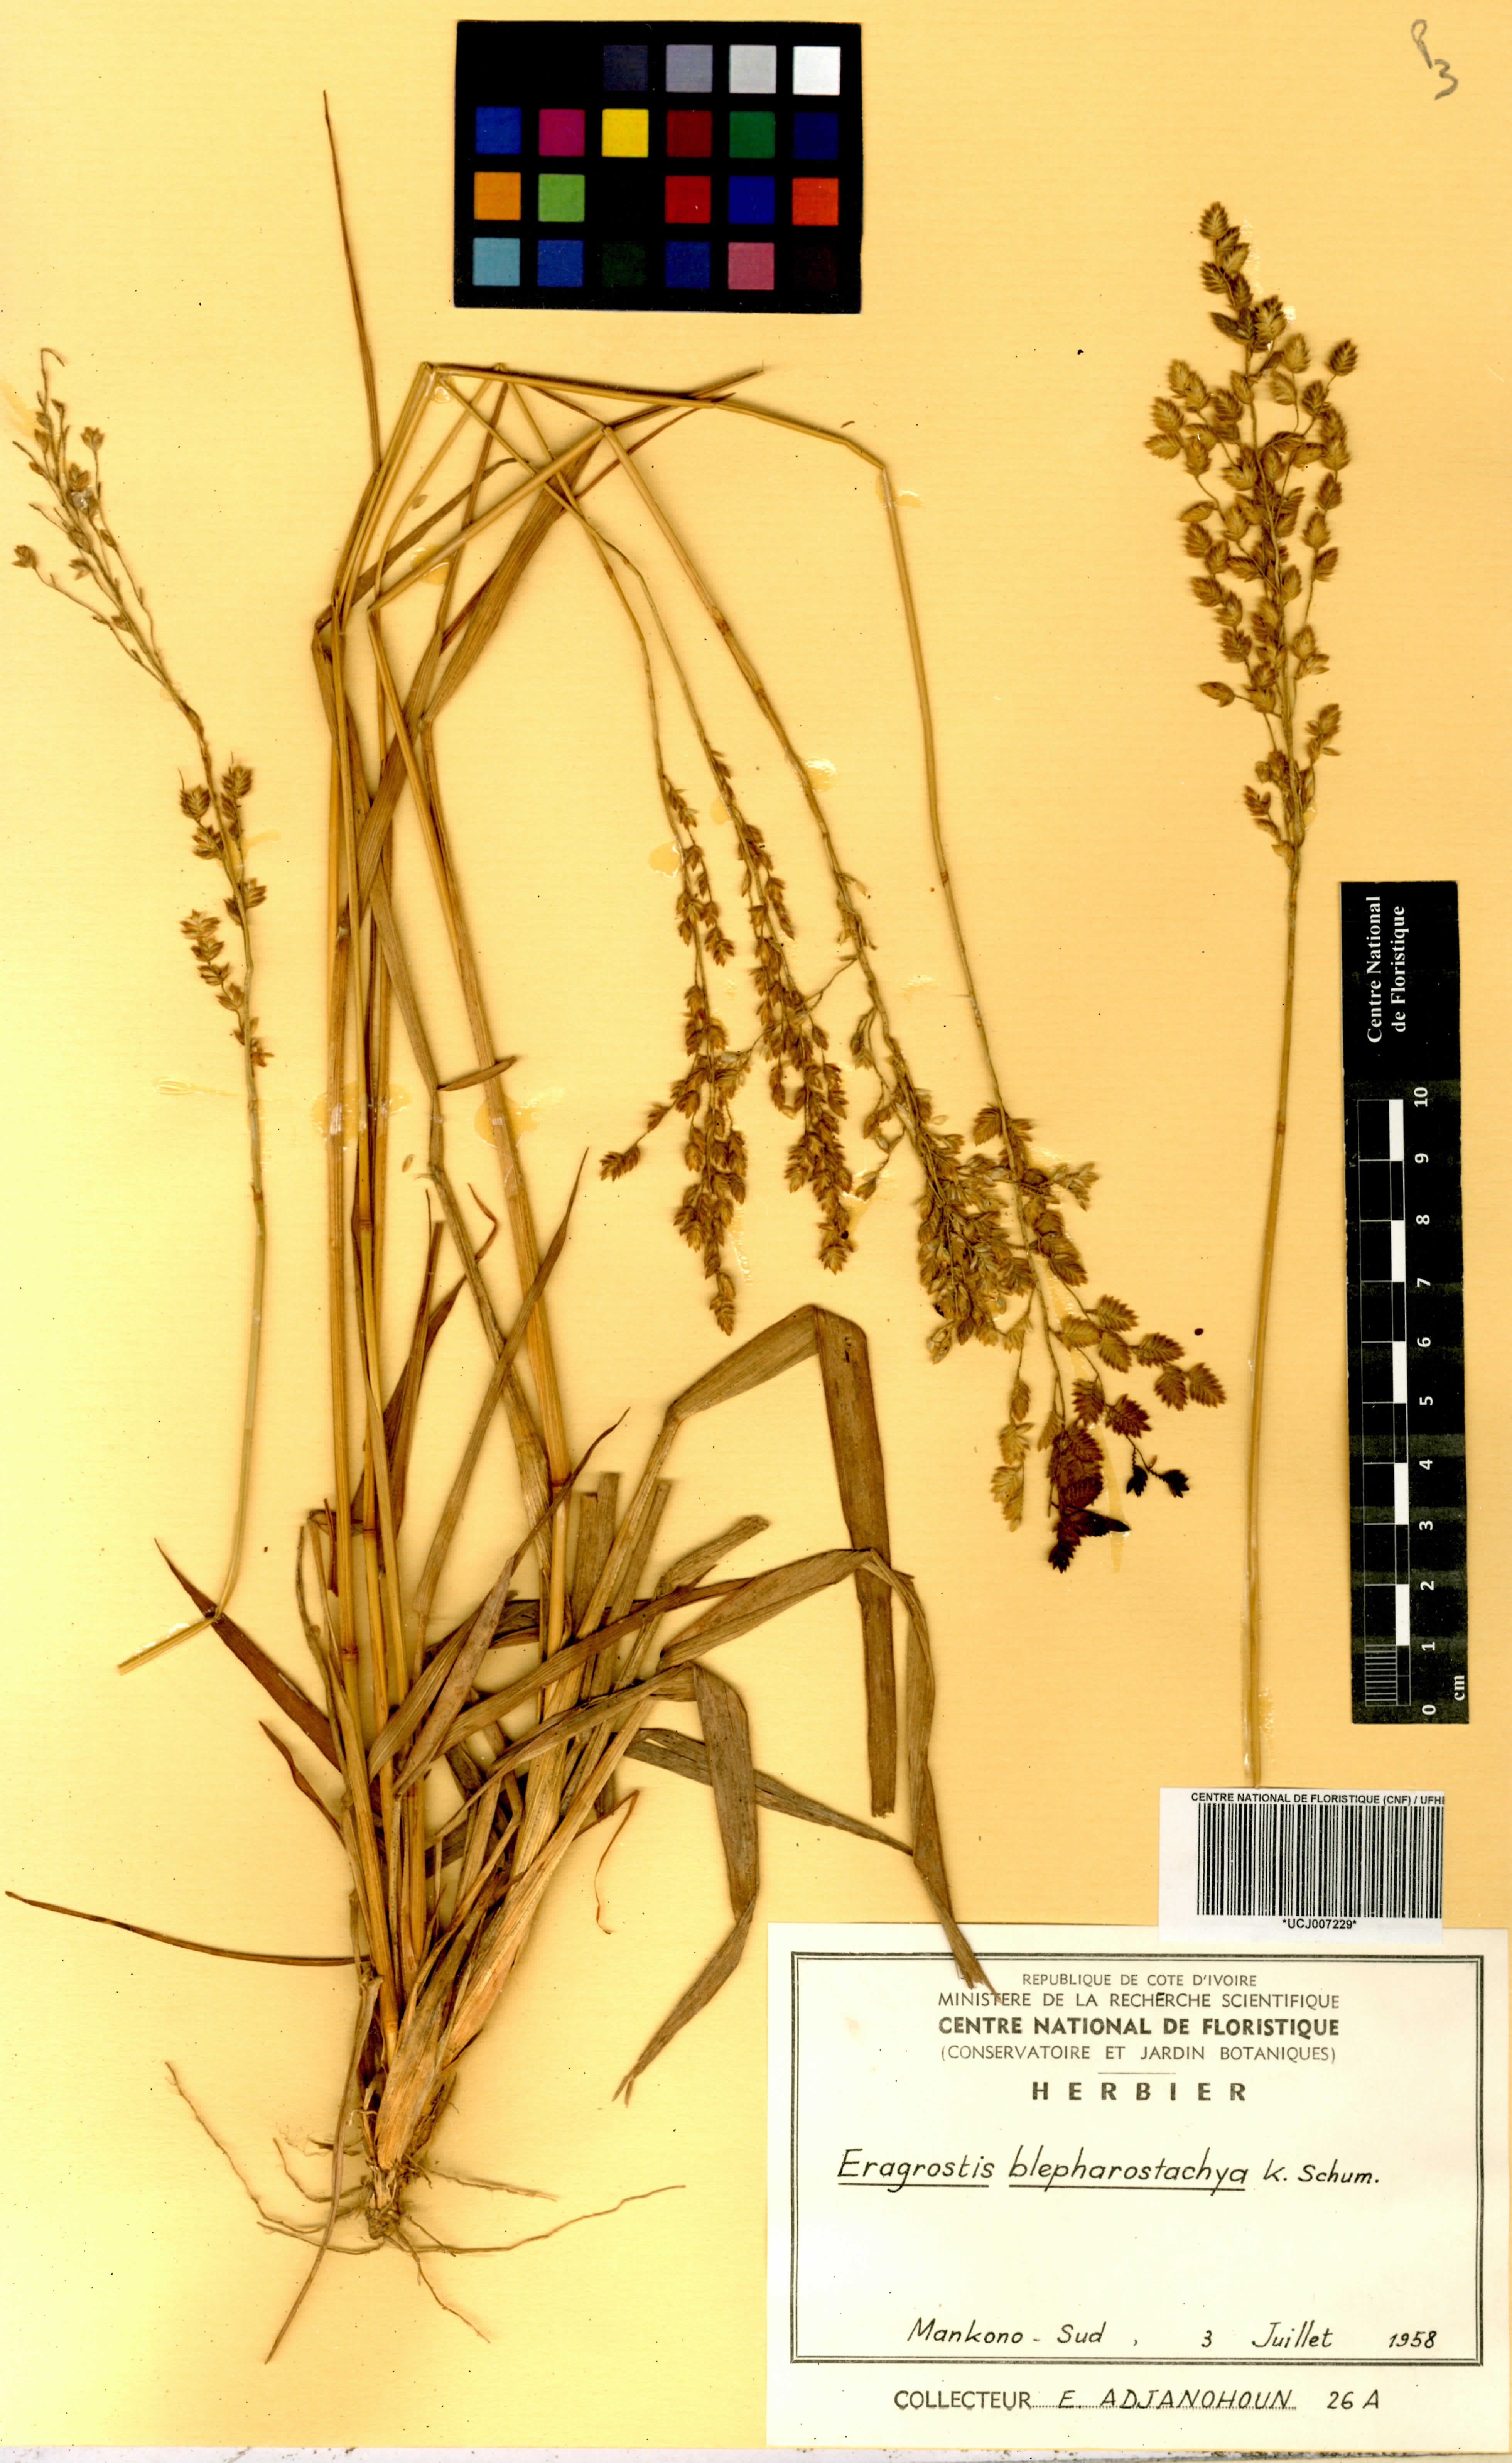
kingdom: Plantae
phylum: Tracheophyta
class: Liliopsida
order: Poales
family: Poaceae
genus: Eragrostis
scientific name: Eragrostis blepharostachya
